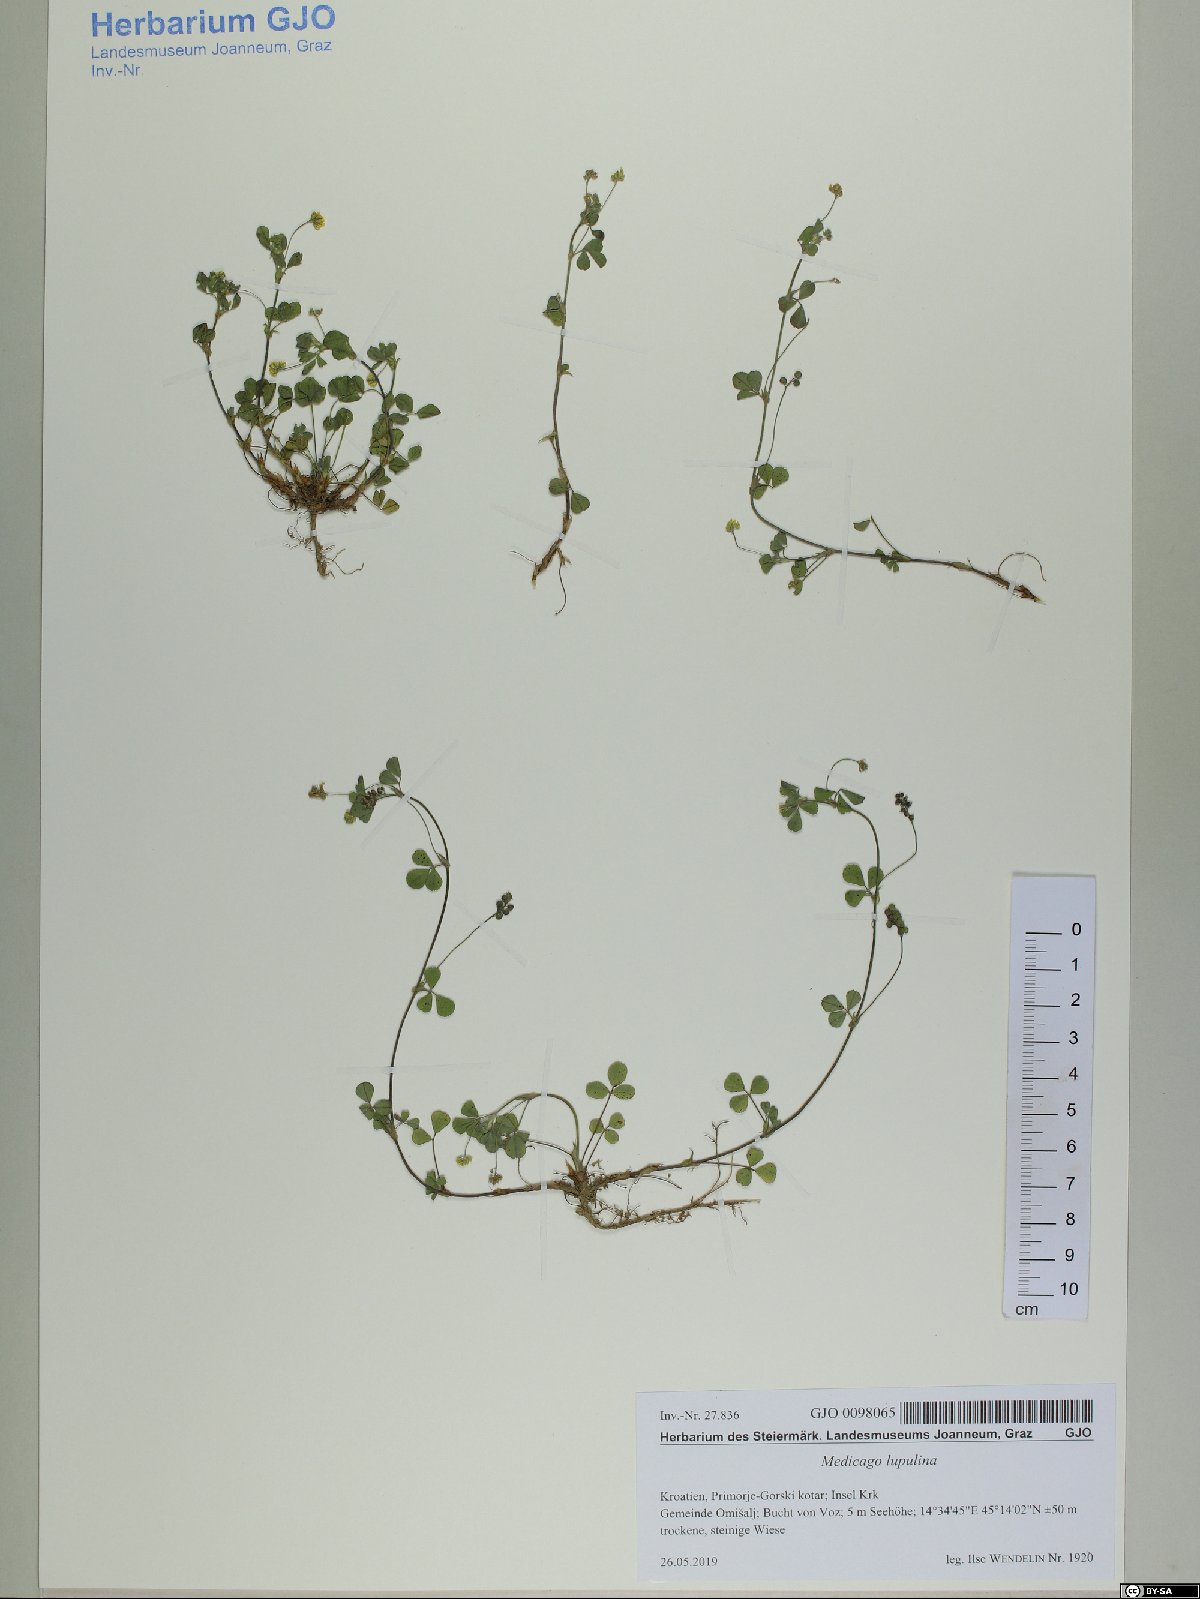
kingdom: Plantae
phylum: Tracheophyta
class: Magnoliopsida
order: Fabales
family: Fabaceae
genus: Medicago
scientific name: Medicago lupulina
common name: Black medick
